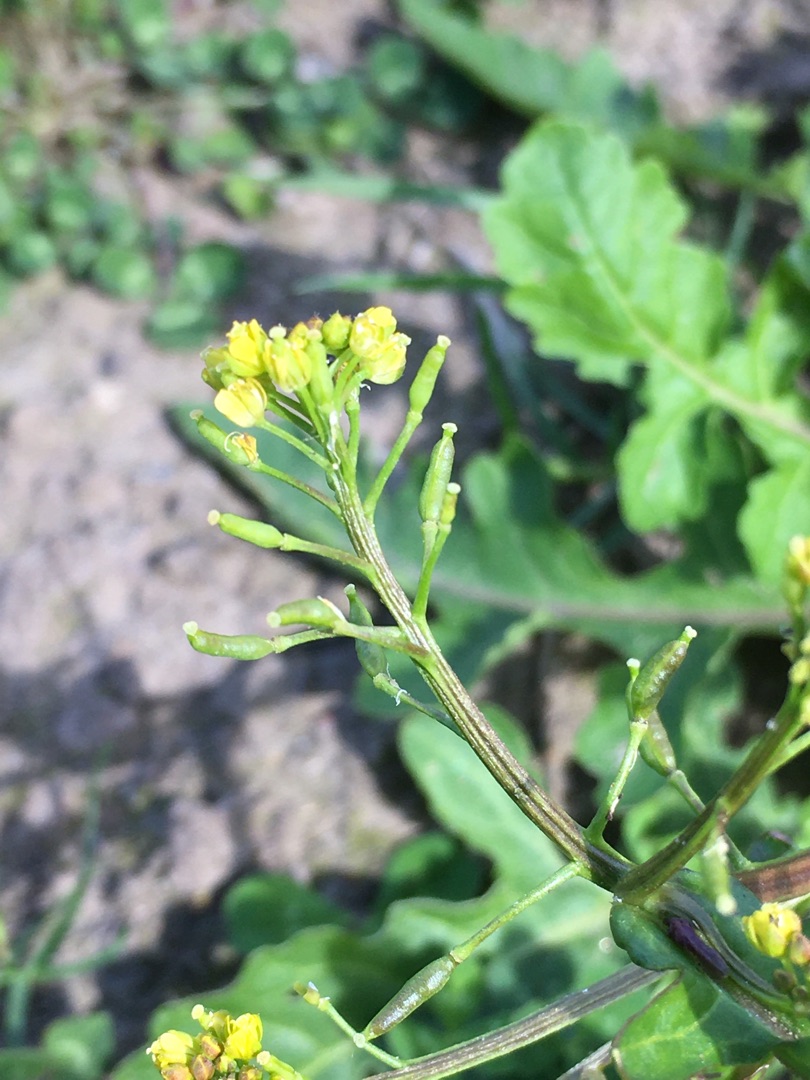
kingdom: Plantae
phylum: Tracheophyta
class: Magnoliopsida
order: Brassicales
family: Brassicaceae
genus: Rorippa
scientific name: Rorippa palustris
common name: Kær-guldkarse
